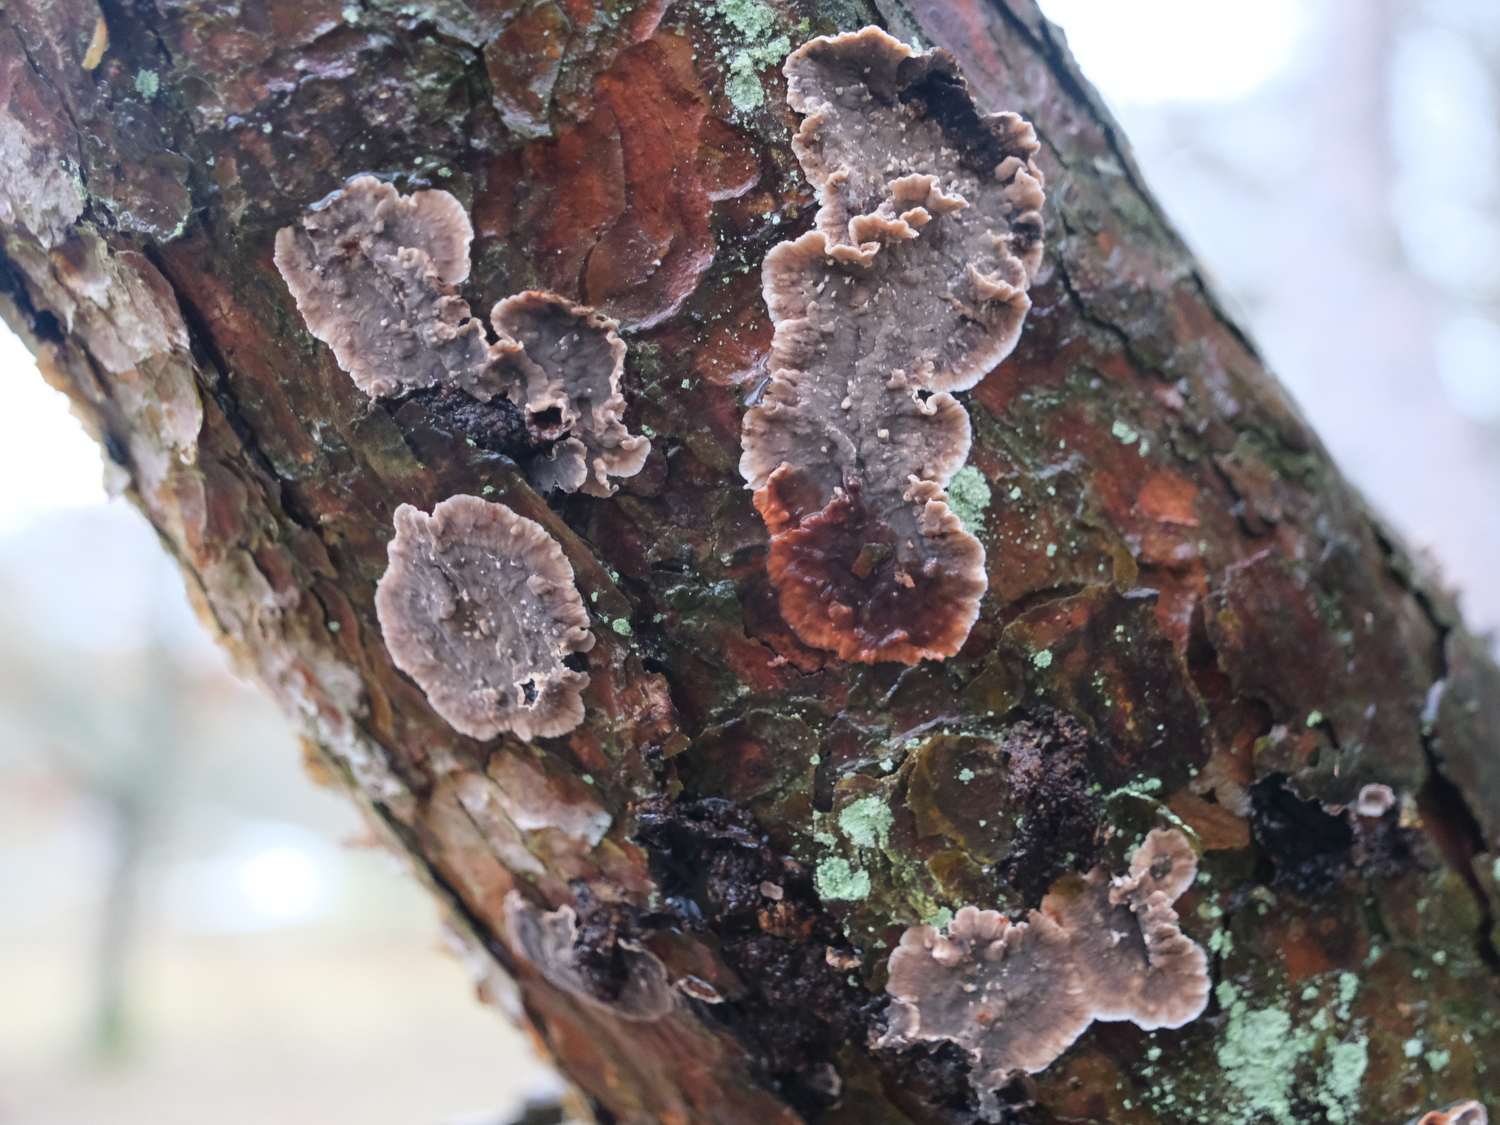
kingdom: Fungi
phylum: Basidiomycota
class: Agaricomycetes
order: Russulales
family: Stereaceae
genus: Stereum
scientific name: Stereum sanguinolentum
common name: blødende lædersvamp
